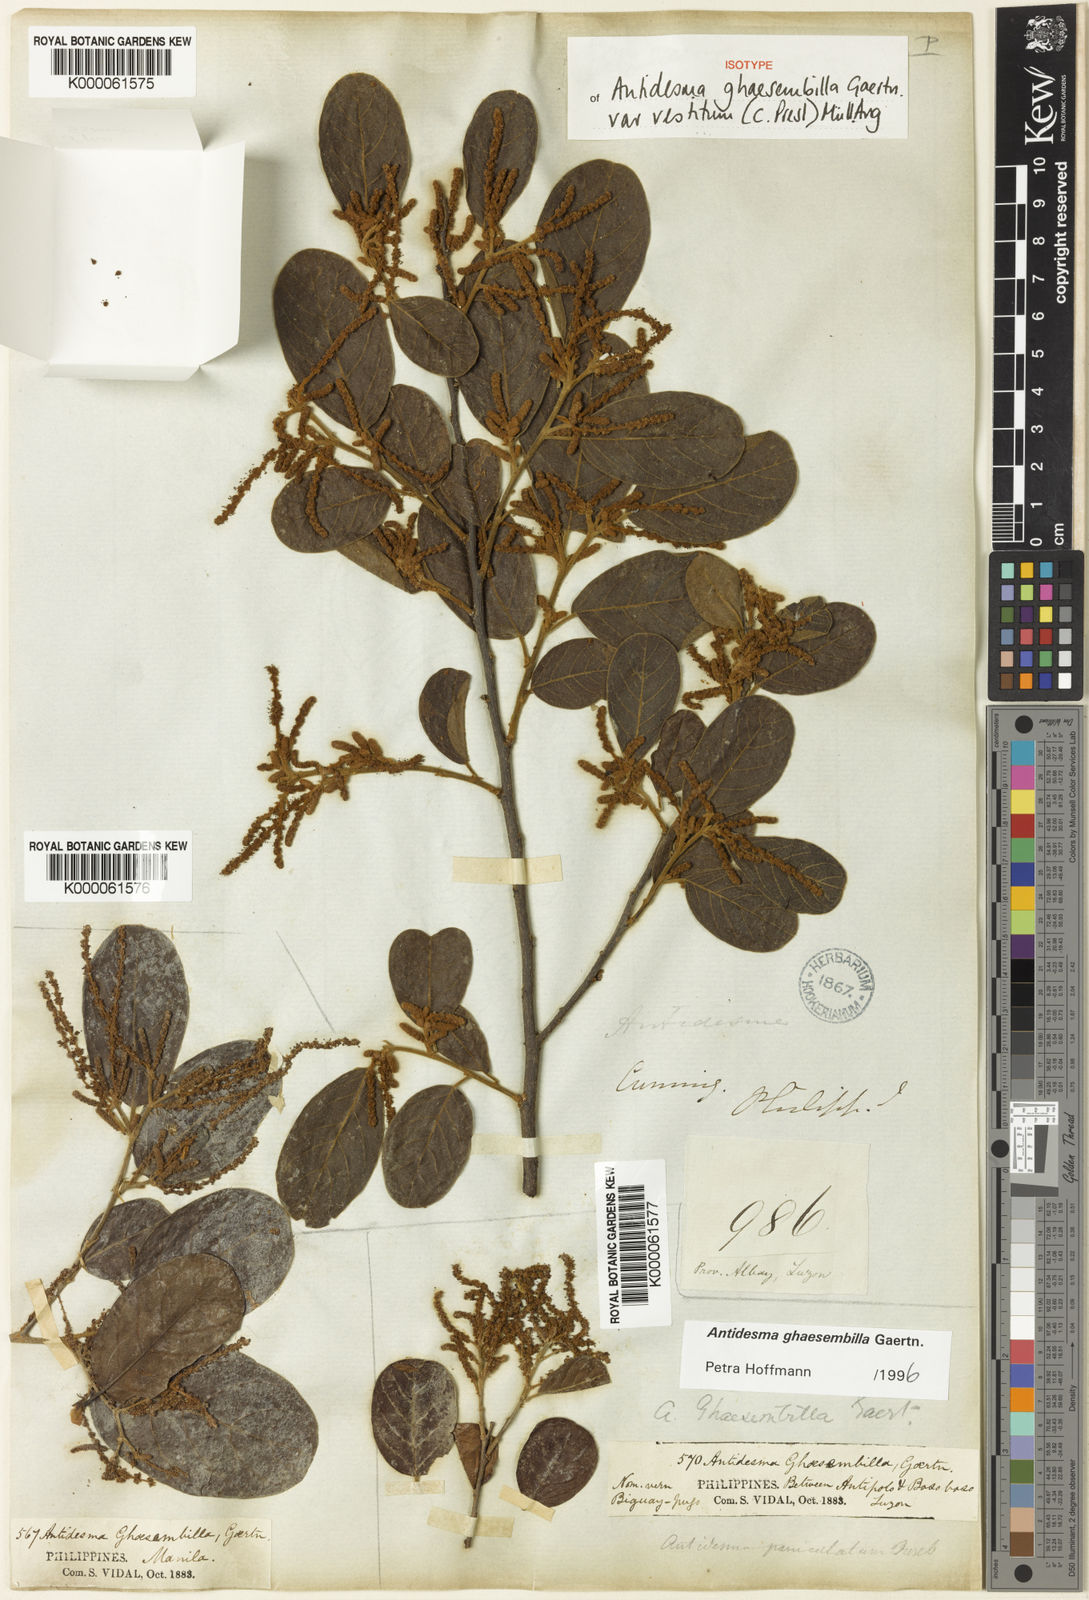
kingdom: Plantae
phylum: Tracheophyta
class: Magnoliopsida
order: Malpighiales
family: Phyllanthaceae
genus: Antidesma
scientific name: Antidesma ghaesembilla
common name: Black currant-tree
